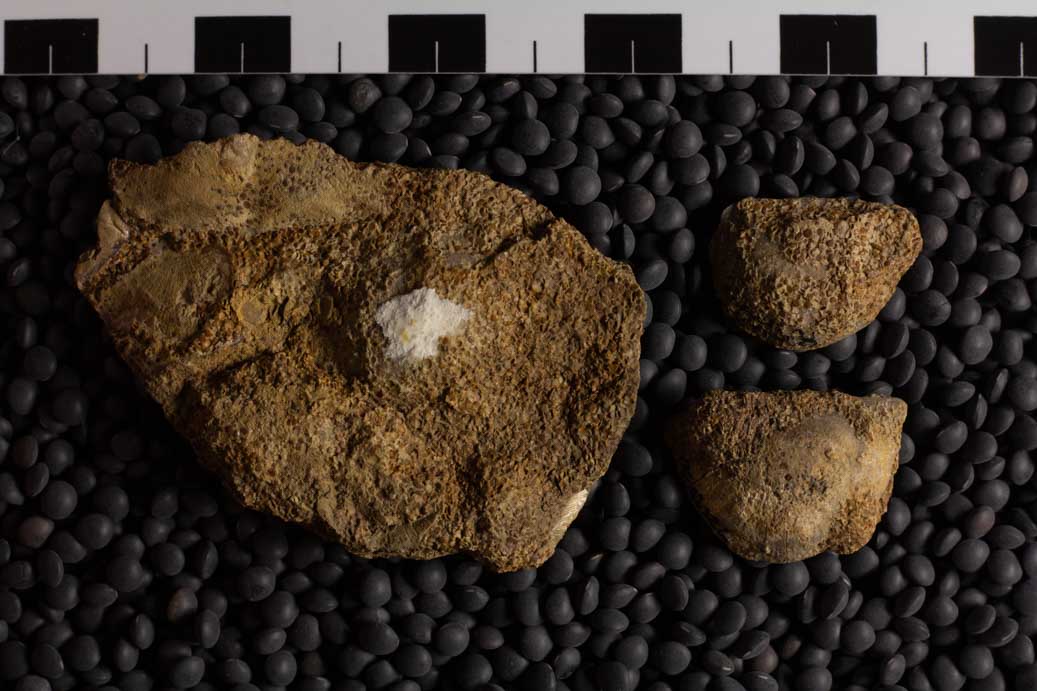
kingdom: Animalia
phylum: Brachiopoda
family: Streptorhynchidae
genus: Streptorhynchus
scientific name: Streptorhynchus
